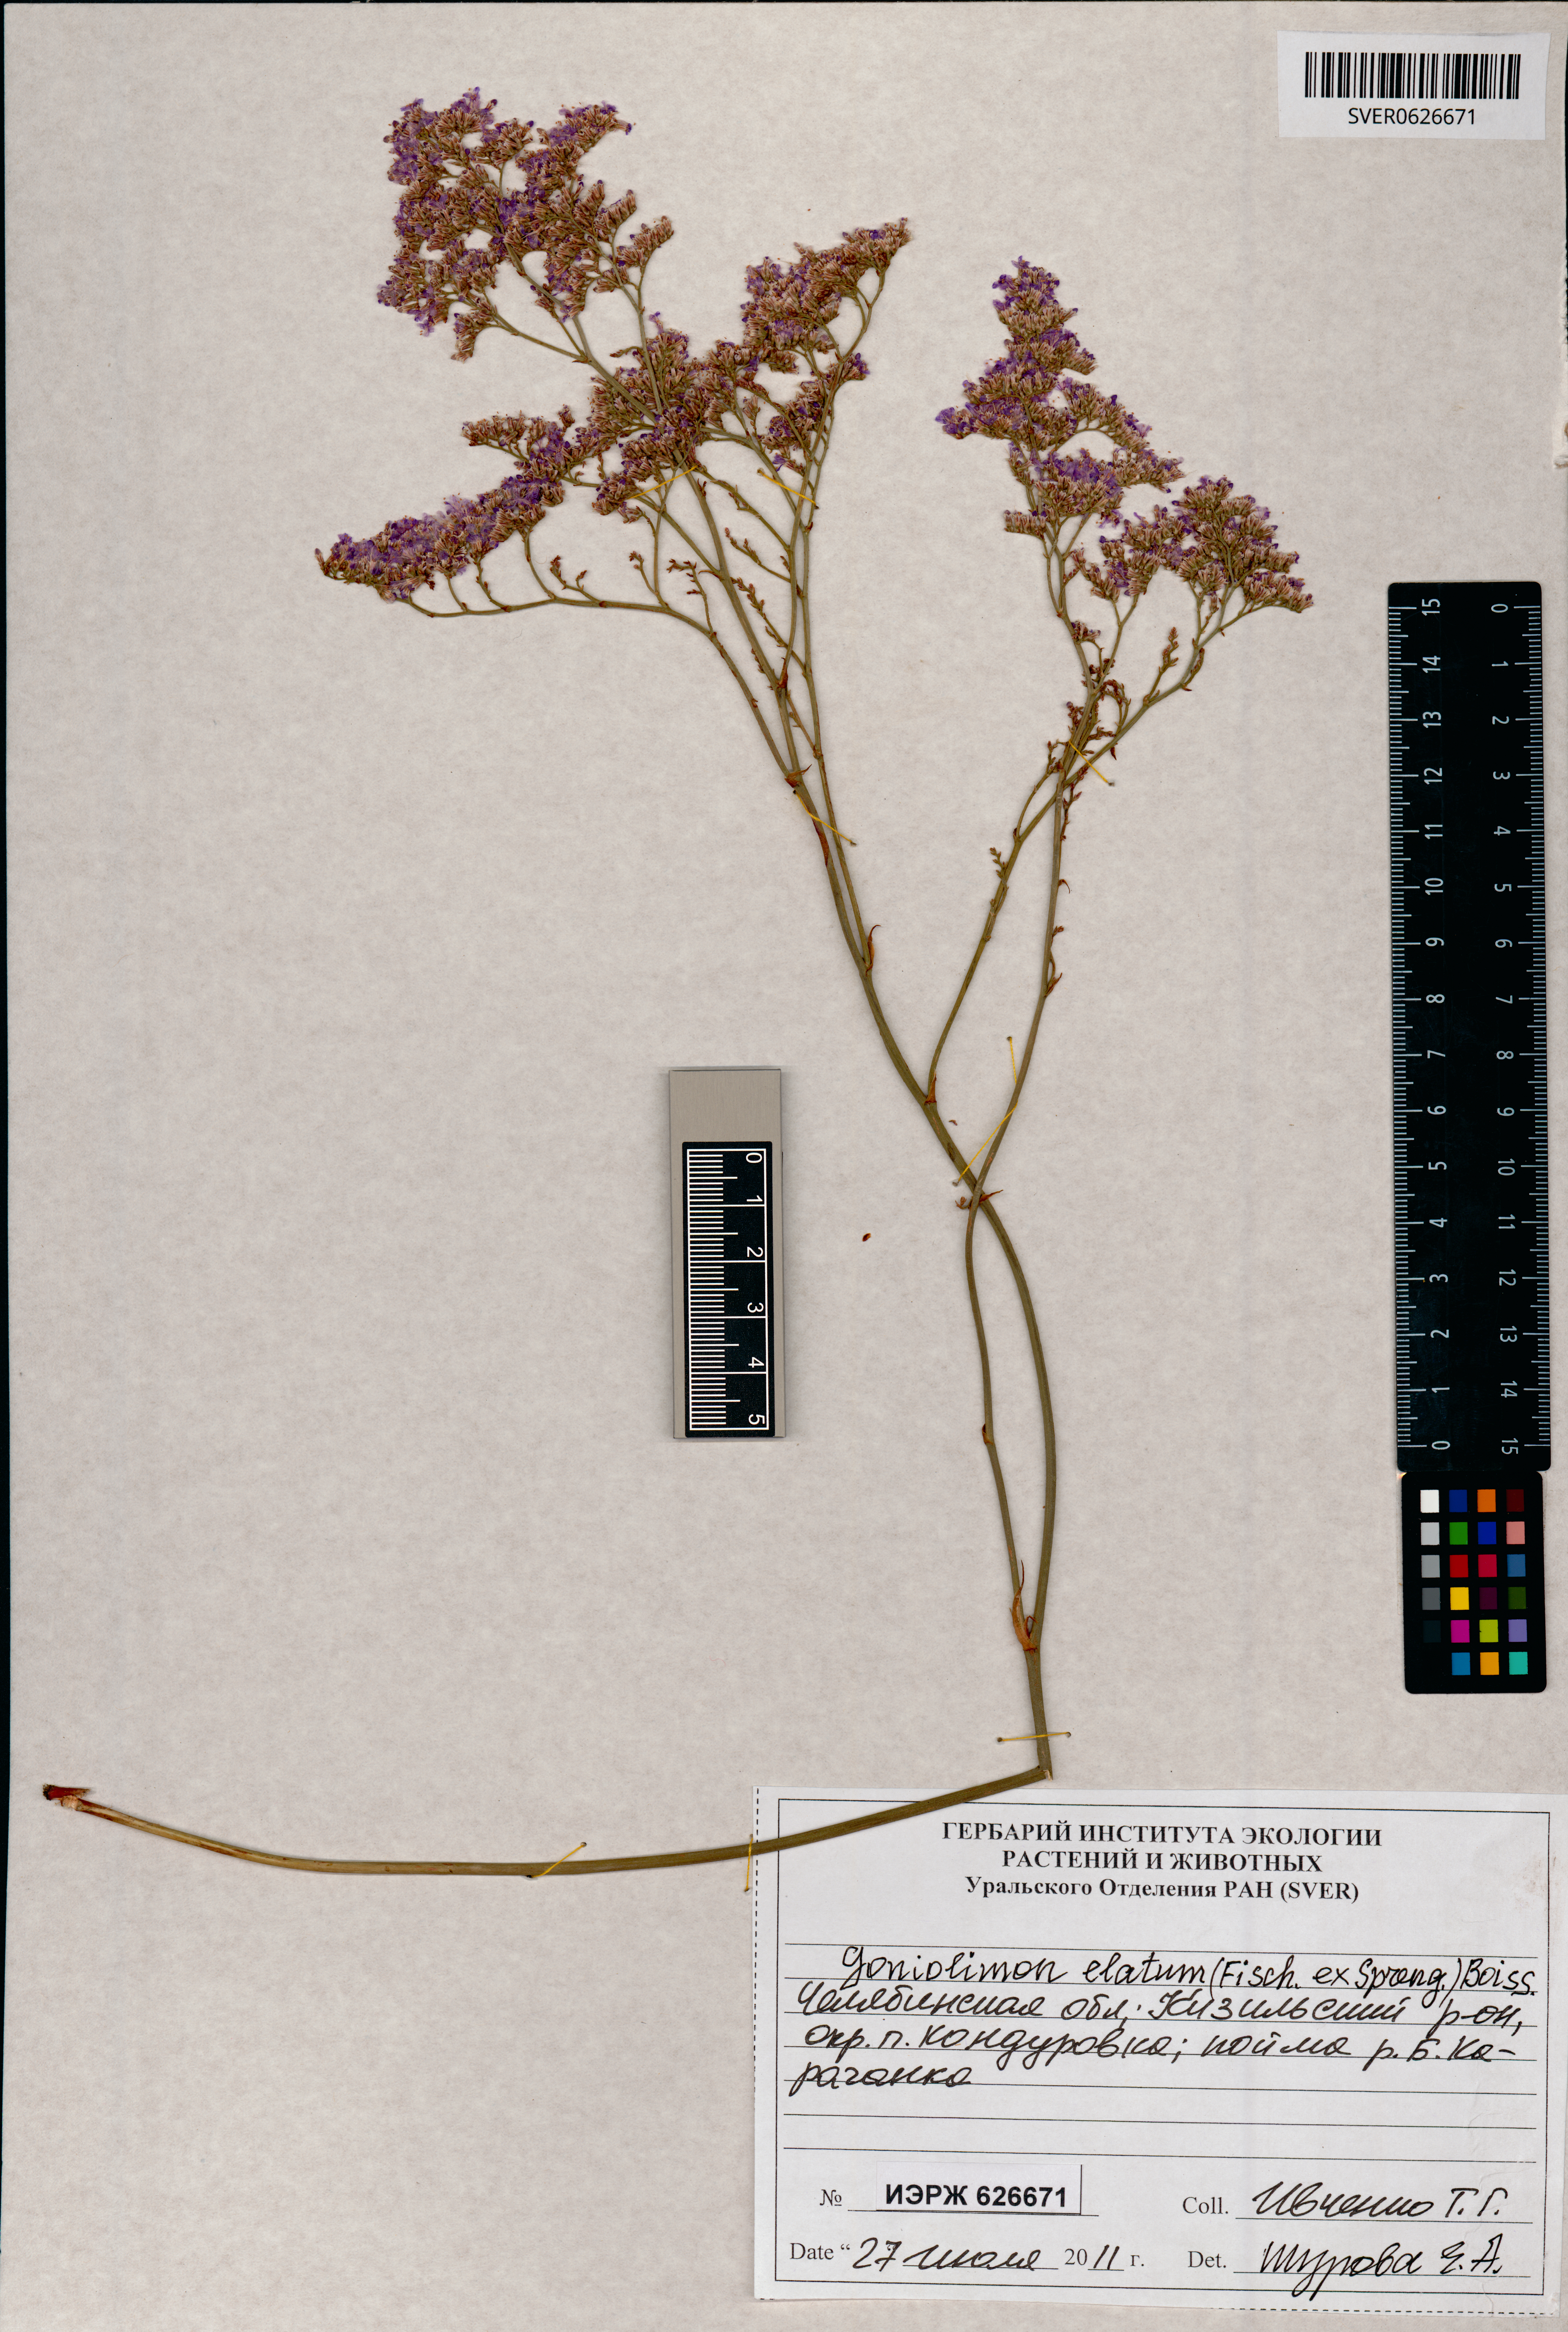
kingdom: Plantae
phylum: Tracheophyta
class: Magnoliopsida
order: Caryophyllales
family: Plumbaginaceae
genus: Goniolimon
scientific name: Goniolimon elatum
